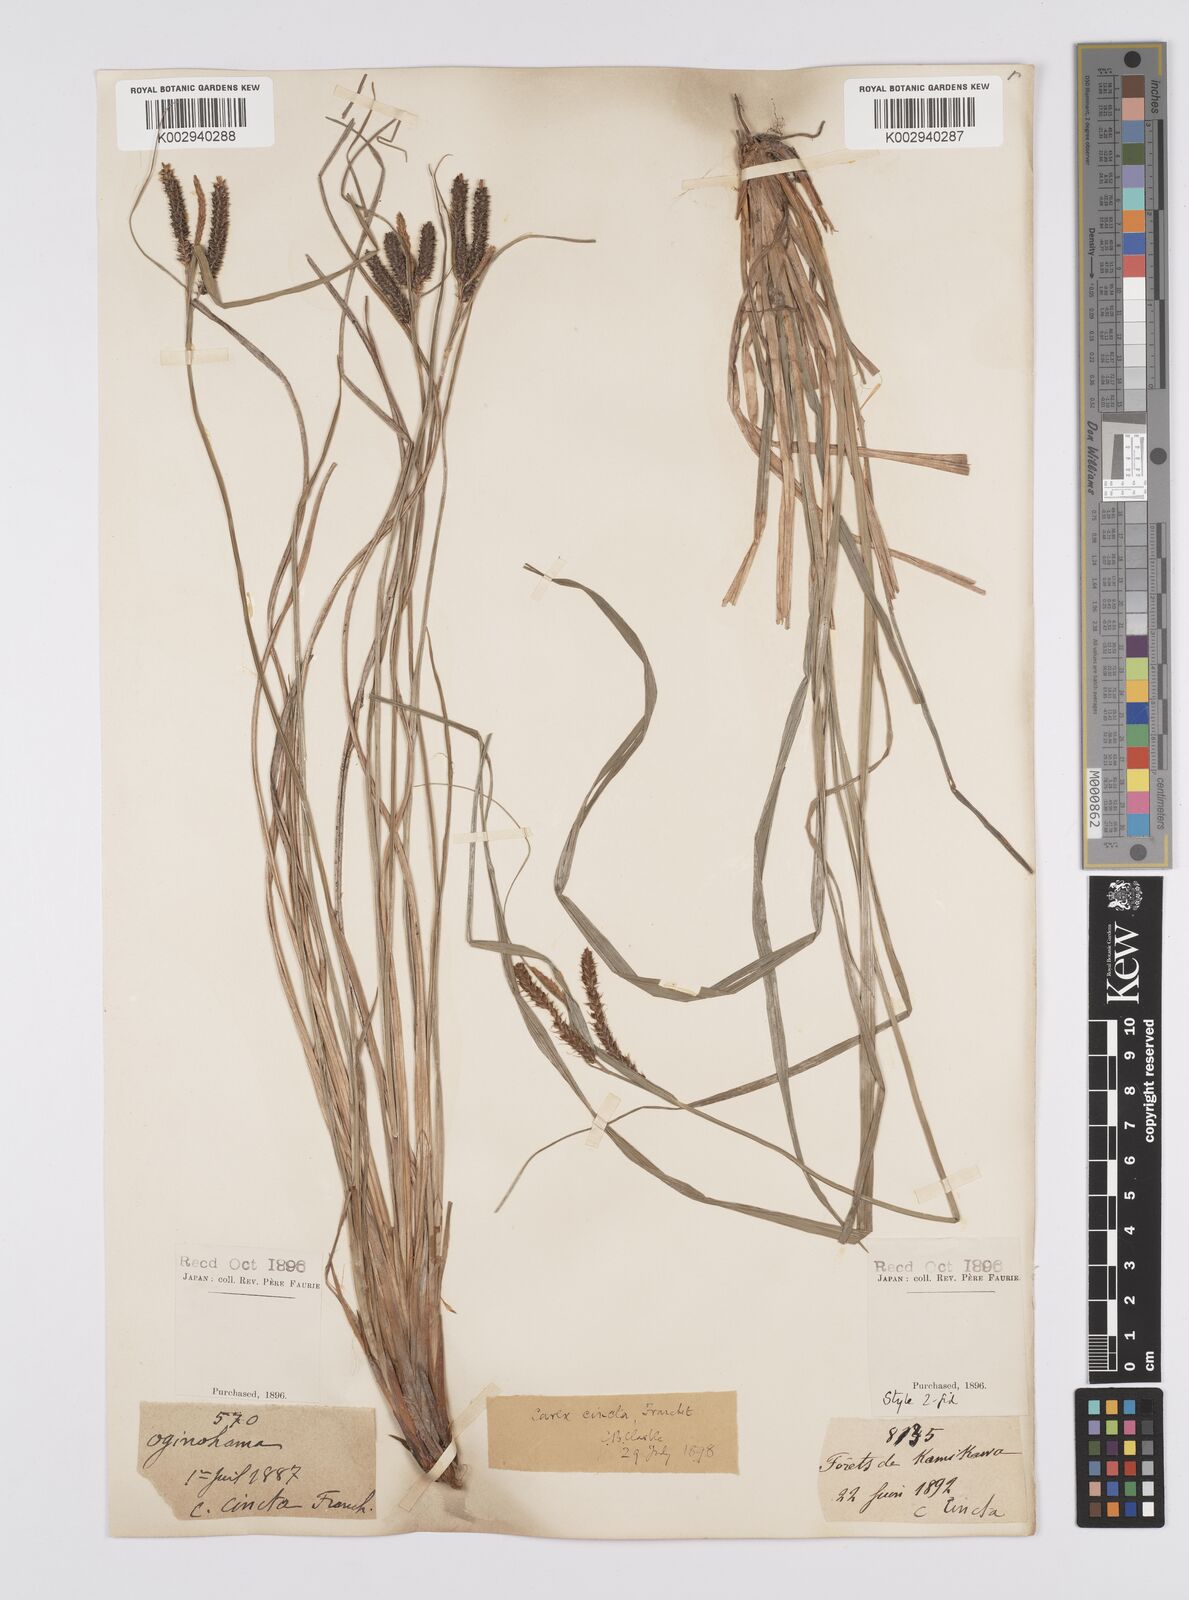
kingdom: Plantae
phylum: Tracheophyta
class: Liliopsida
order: Poales
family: Cyperaceae
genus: Carex
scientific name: Carex phacota
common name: Lakeshore sedge
